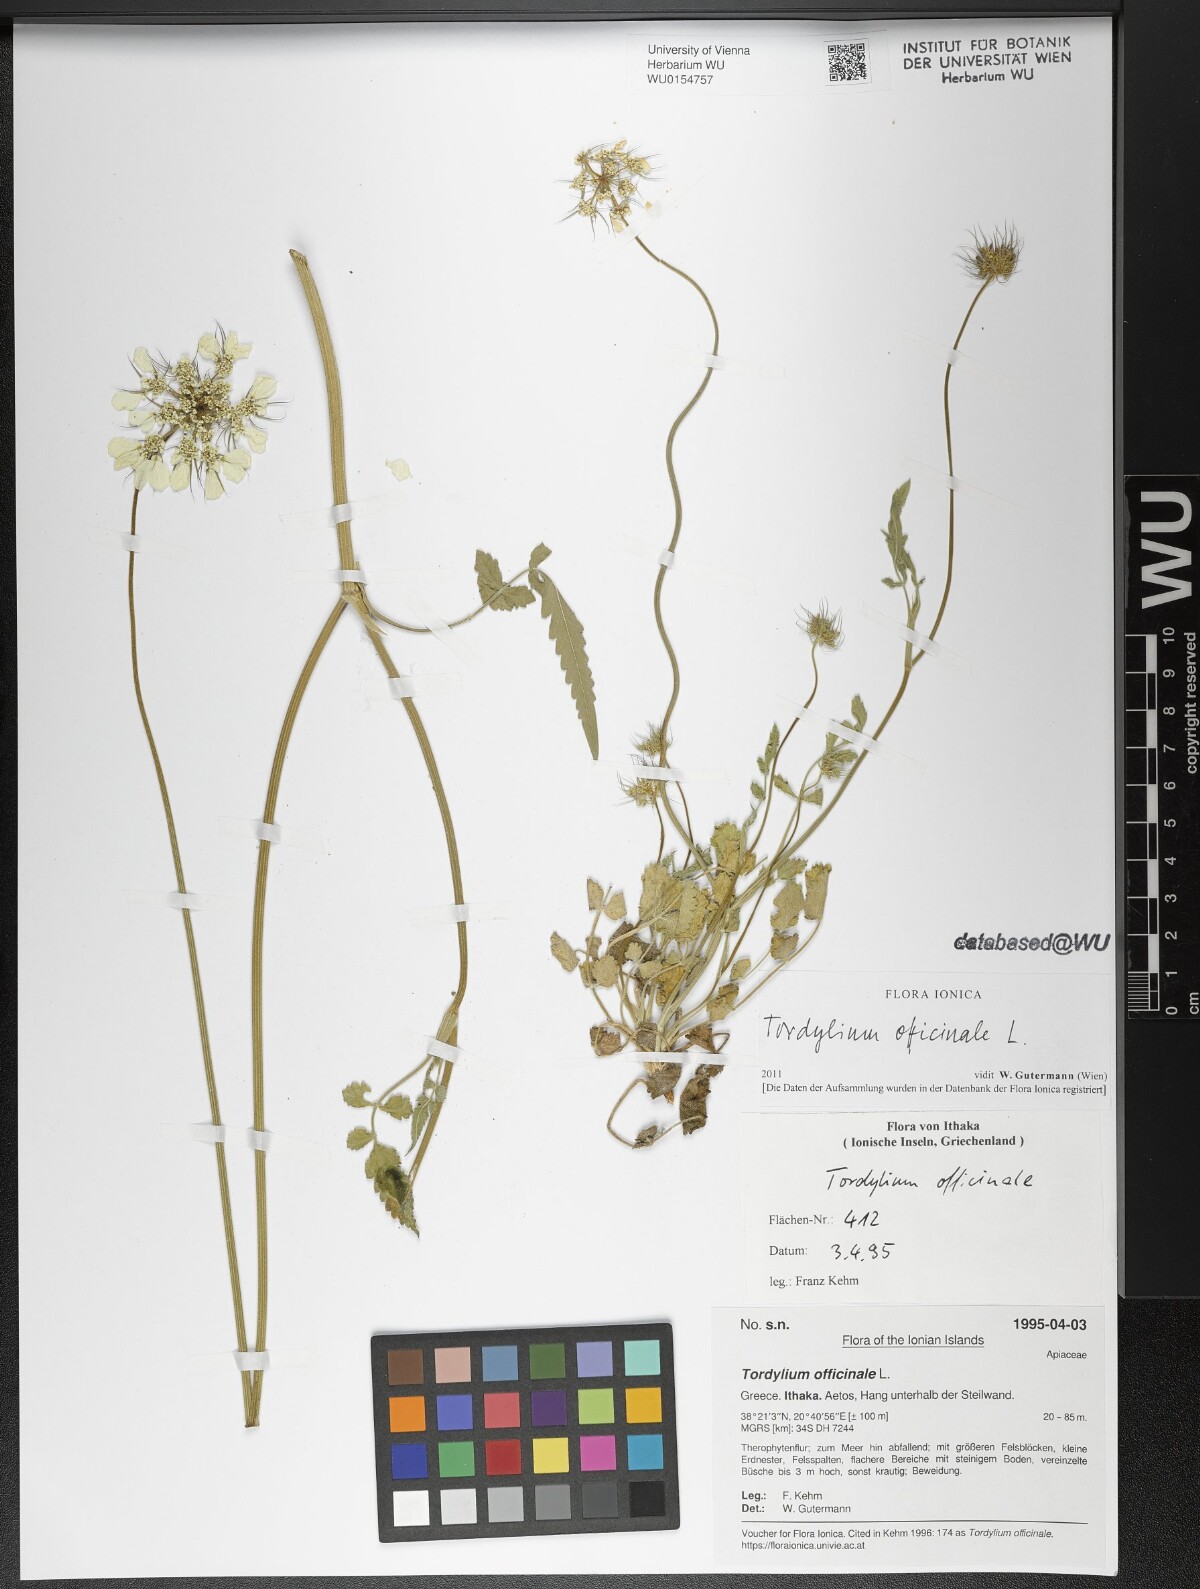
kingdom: Plantae
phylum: Tracheophyta
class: Magnoliopsida
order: Apiales
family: Apiaceae
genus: Tordylium
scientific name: Tordylium officinale
